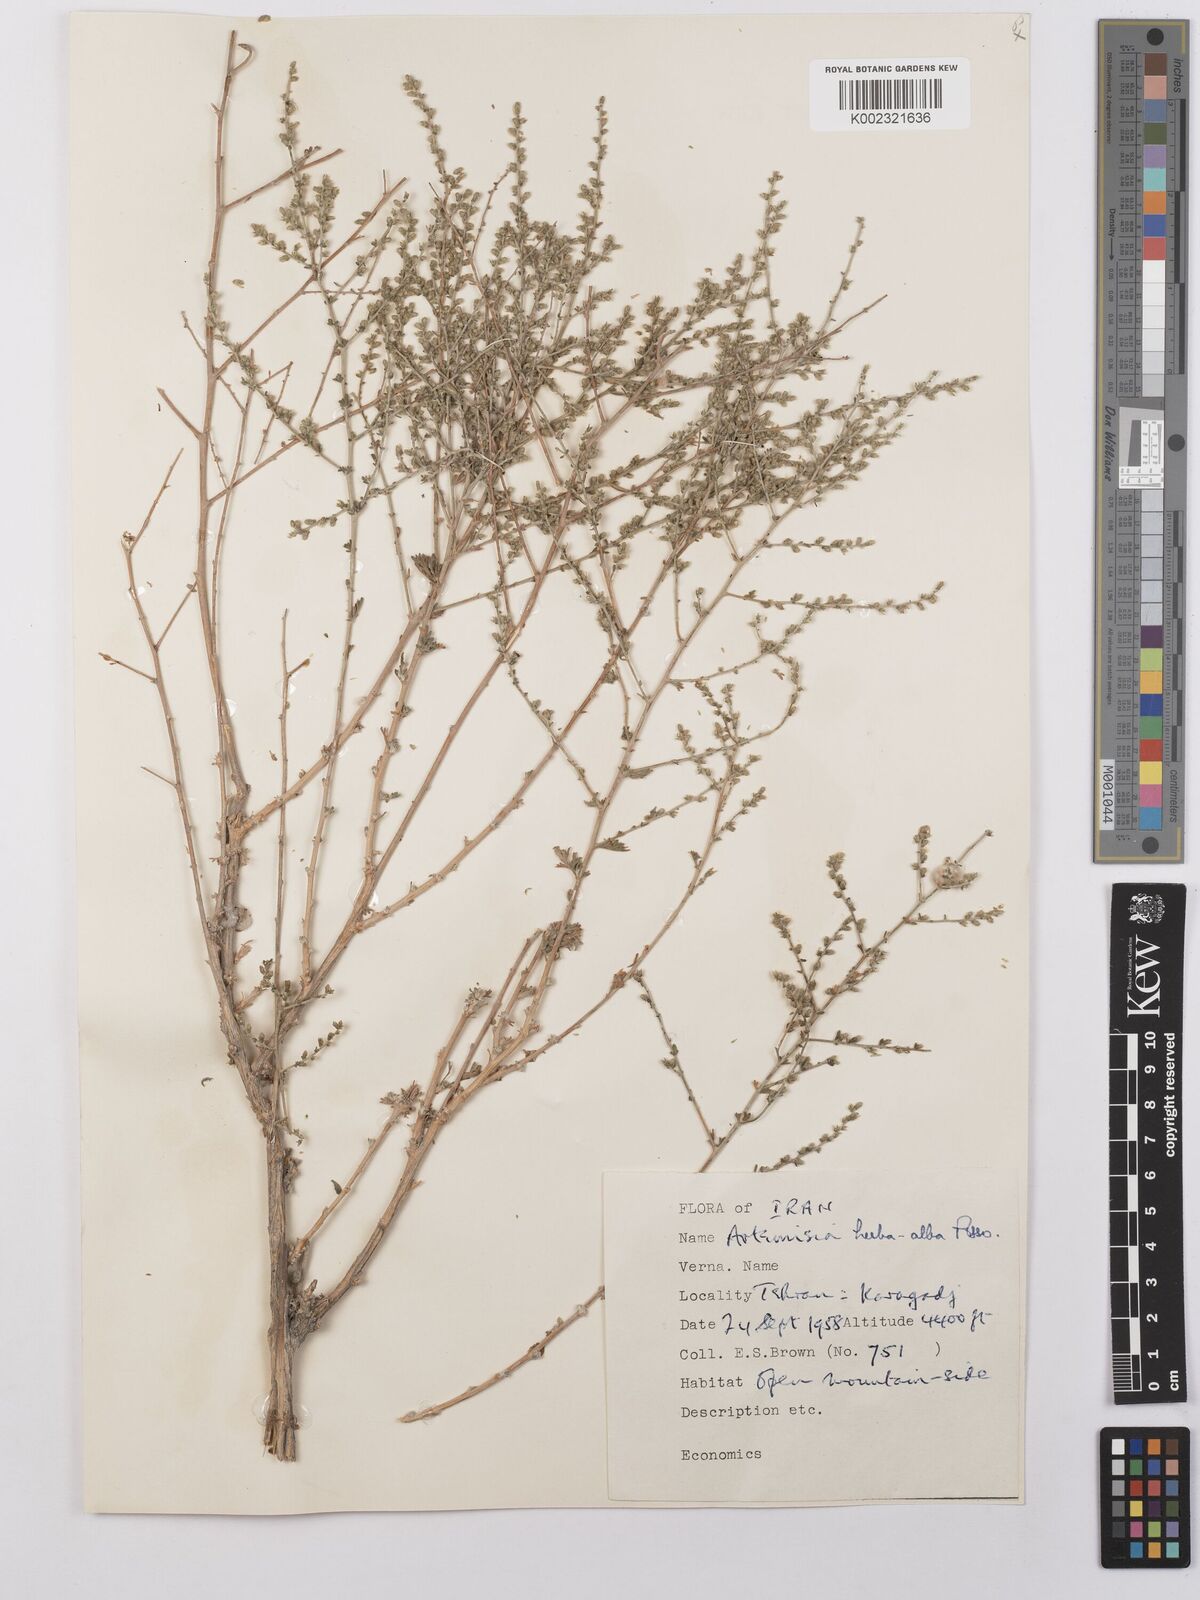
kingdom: Plantae
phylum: Tracheophyta
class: Magnoliopsida
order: Asterales
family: Asteraceae
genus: Artemisia
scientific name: Artemisia herba-alba
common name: White wormwood
